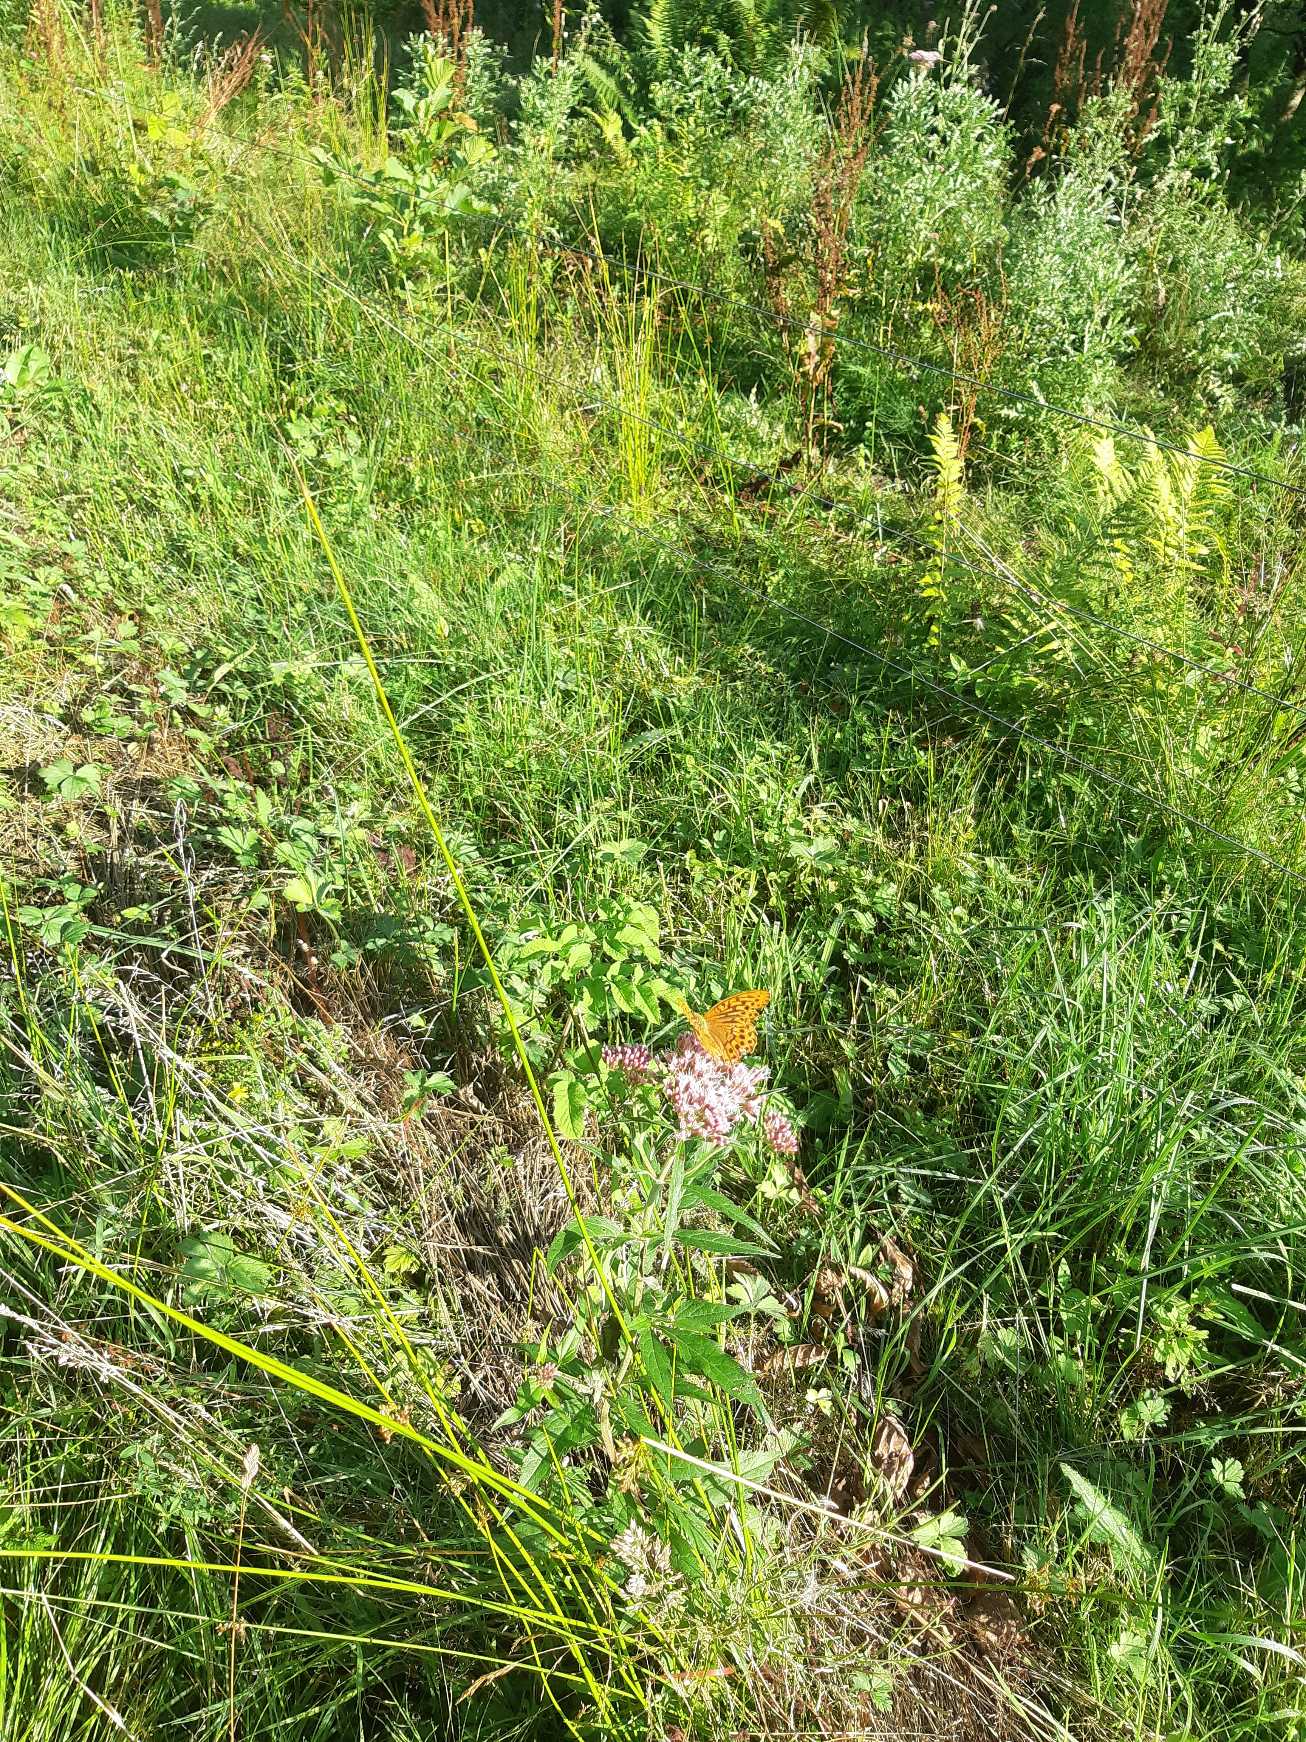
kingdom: Animalia
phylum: Arthropoda
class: Insecta
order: Lepidoptera
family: Nymphalidae
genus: Argynnis
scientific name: Argynnis paphia
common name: Kejserkåbe
